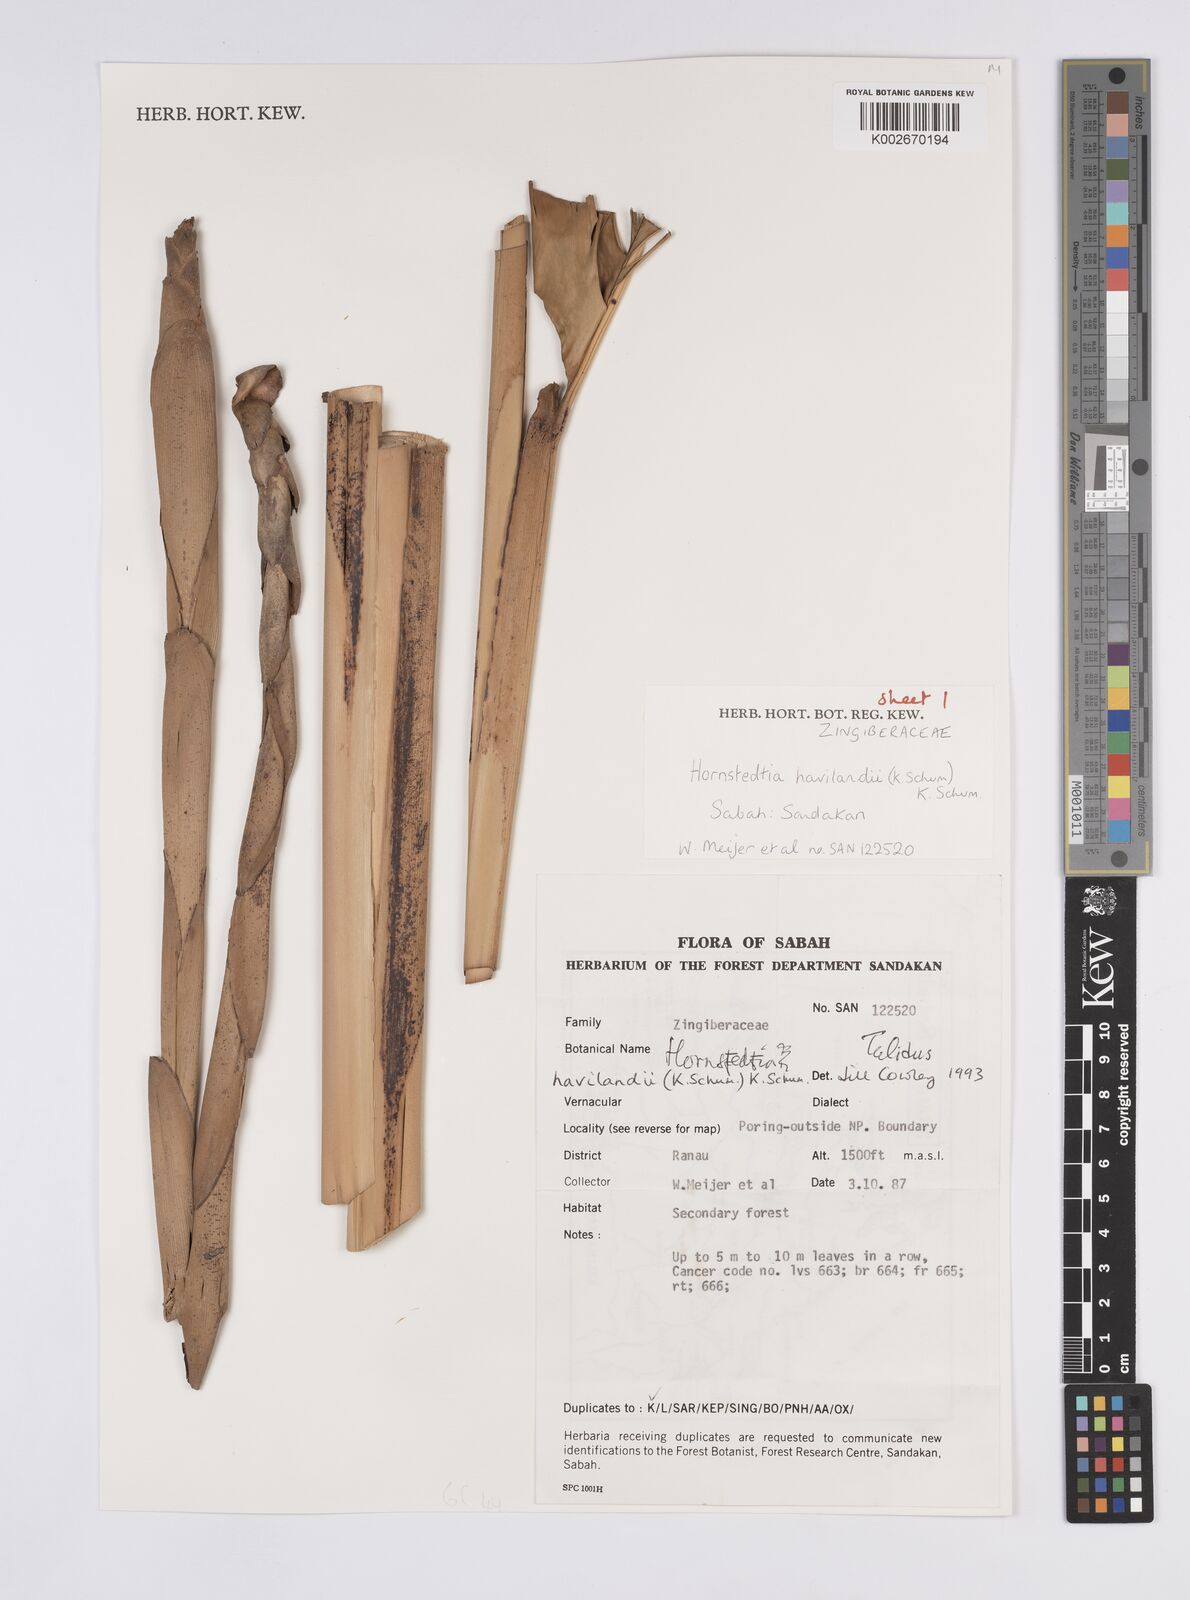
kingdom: Plantae
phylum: Tracheophyta
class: Liliopsida
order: Zingiberales
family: Zingiberaceae
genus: Hornstedtia
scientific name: Hornstedtia havilandii
